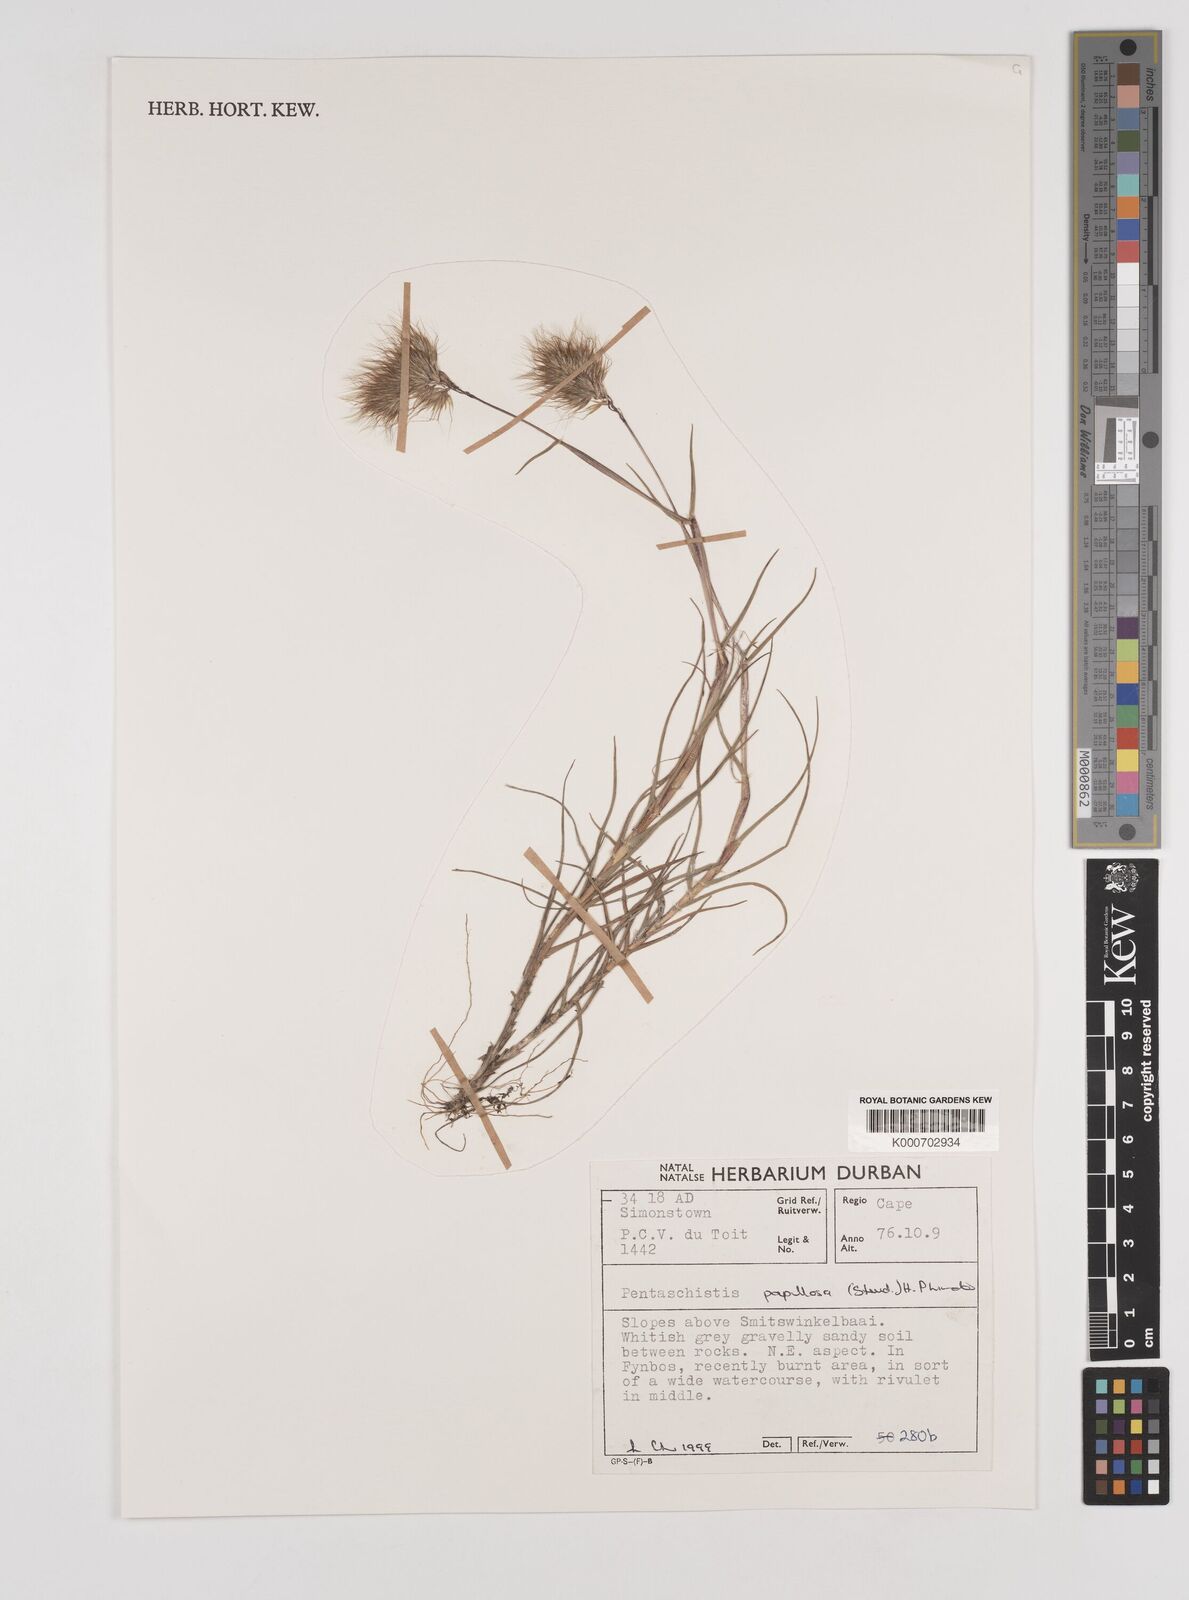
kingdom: Plantae
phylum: Tracheophyta
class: Liliopsida
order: Poales
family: Poaceae
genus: Pentameris
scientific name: Pentameris scabra
